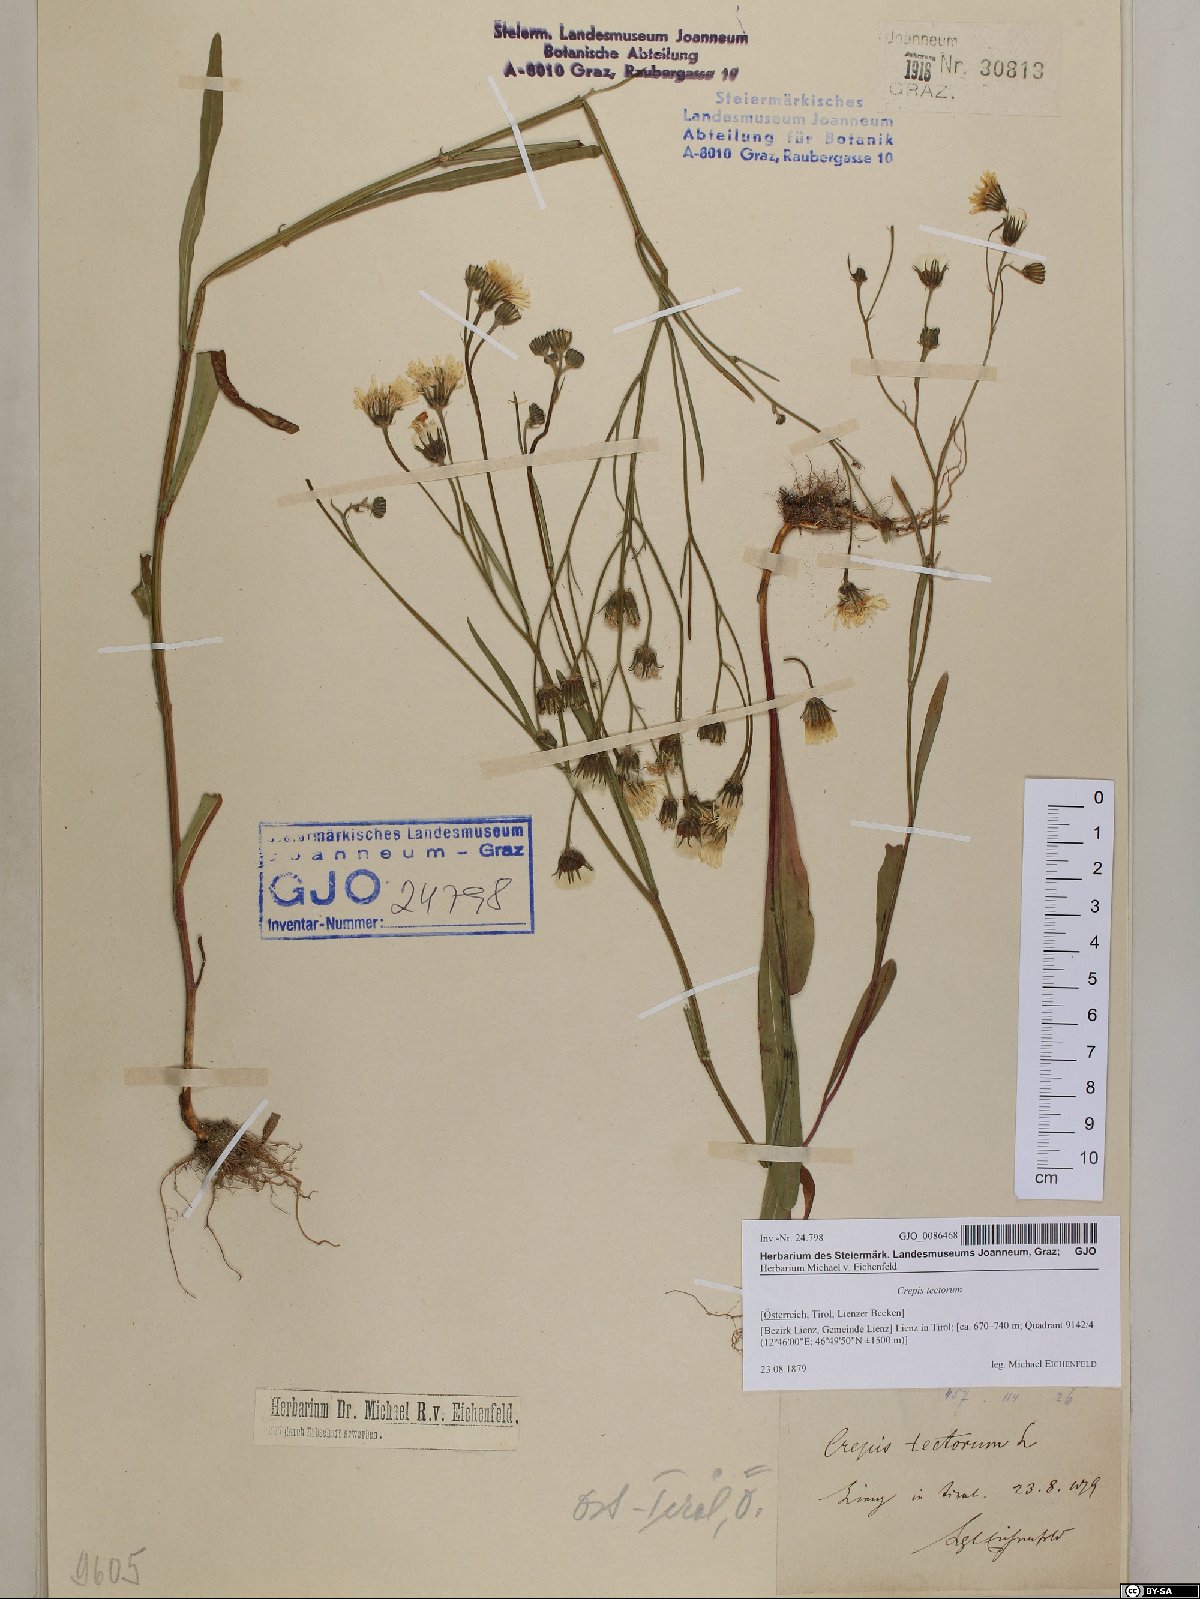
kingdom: Plantae
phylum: Tracheophyta
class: Magnoliopsida
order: Asterales
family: Asteraceae
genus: Crepis
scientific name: Crepis tectorum
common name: Narrow-leaved hawk's-beard
